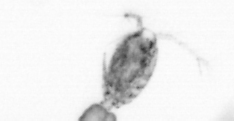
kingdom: Animalia
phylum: Arthropoda
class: Copepoda
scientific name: Copepoda
